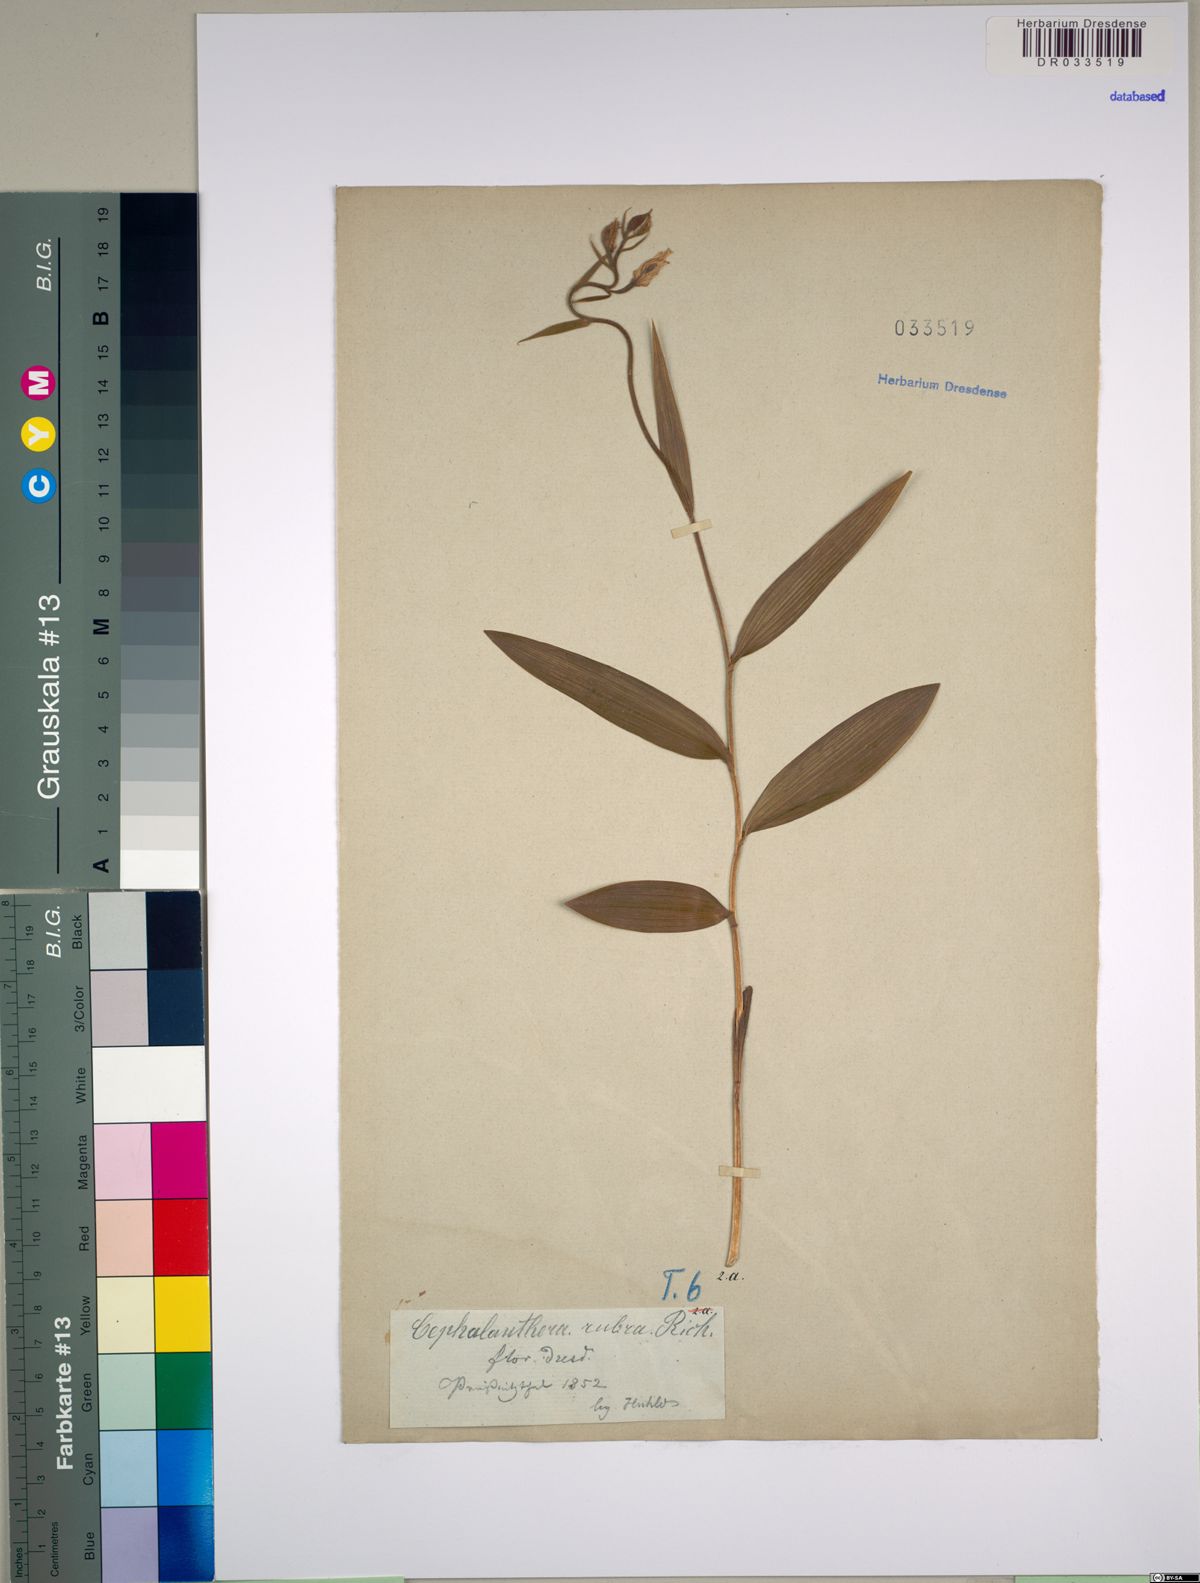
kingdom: Plantae
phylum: Tracheophyta
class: Liliopsida
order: Asparagales
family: Orchidaceae
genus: Cephalanthera
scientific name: Cephalanthera rubra
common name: Red helleborine
